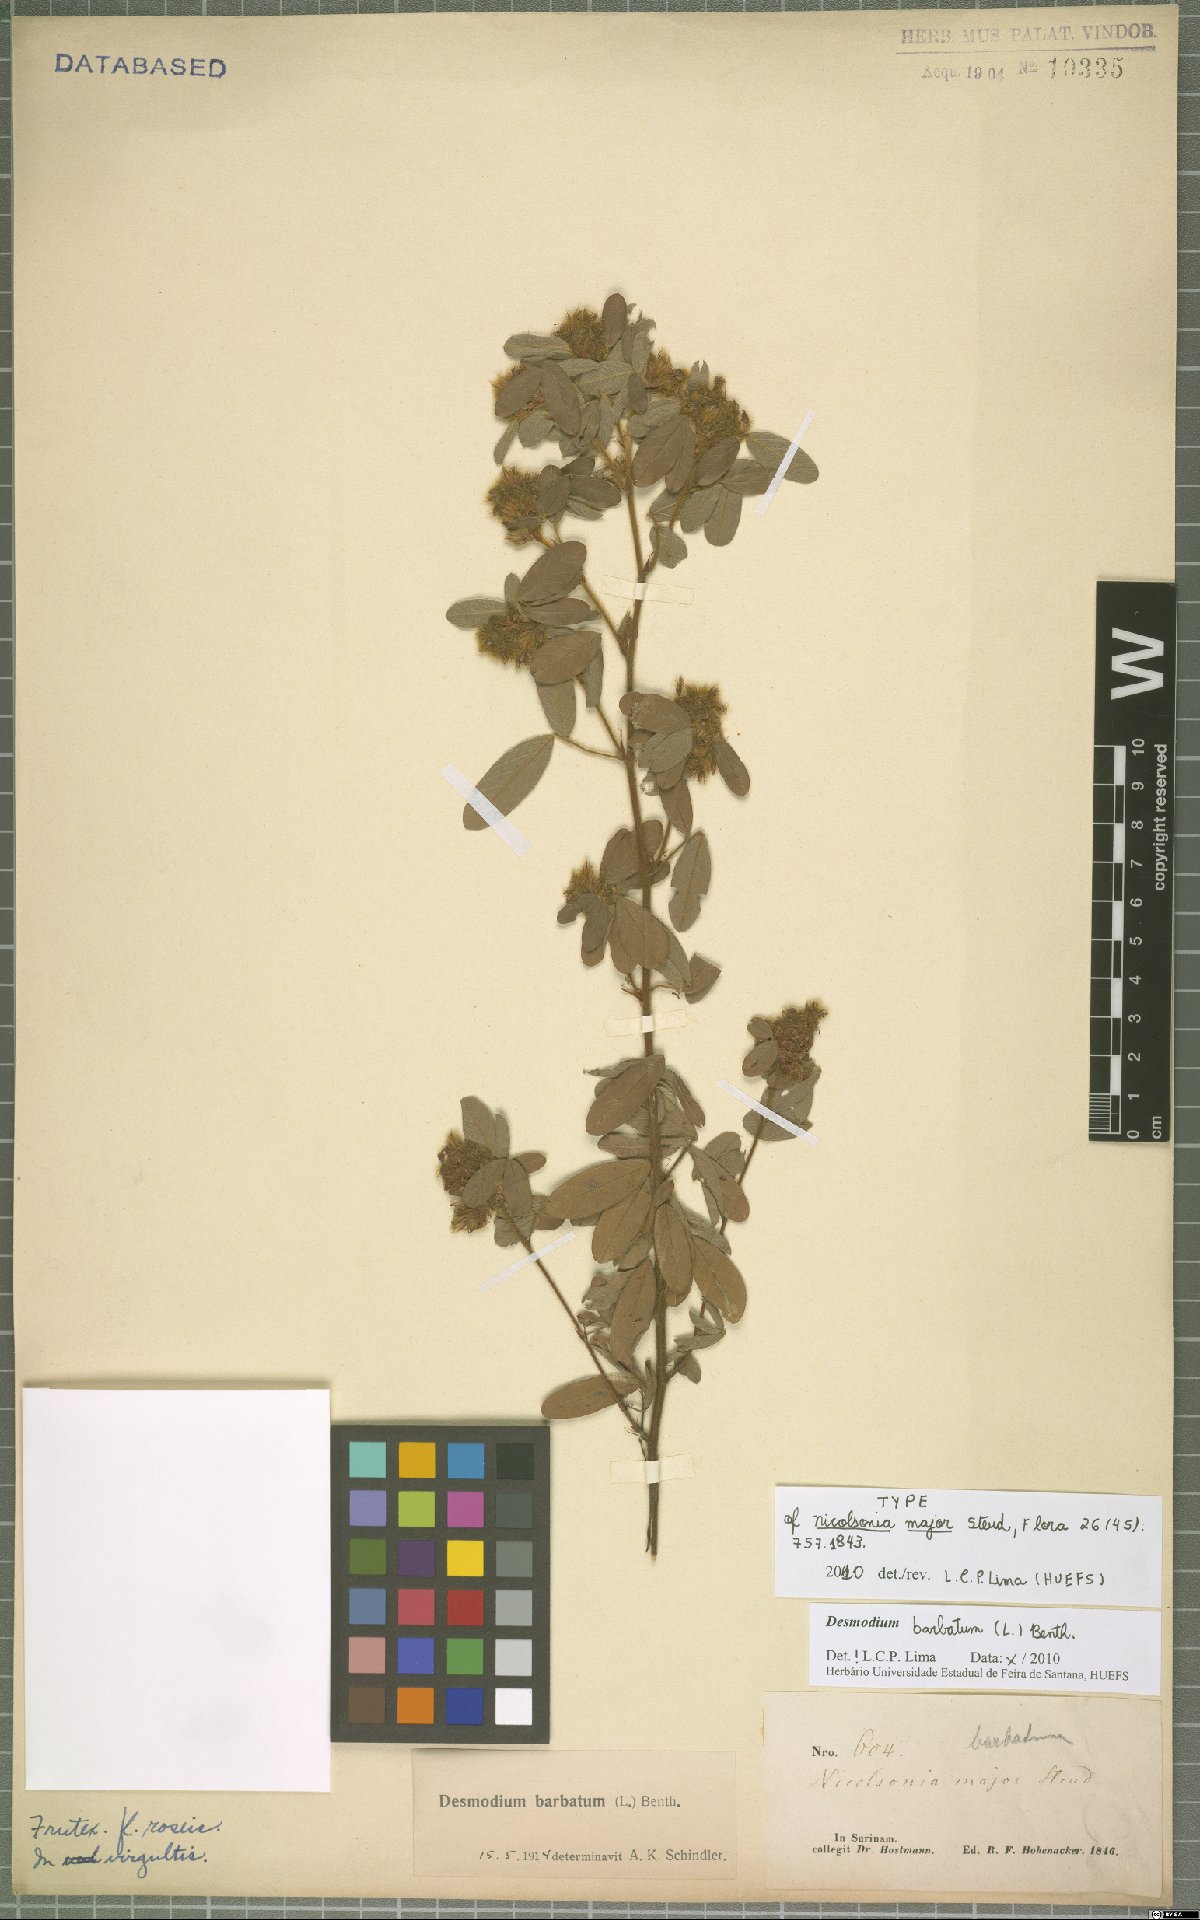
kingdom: Plantae
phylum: Tracheophyta
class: Magnoliopsida
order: Fabales
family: Fabaceae
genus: Grona
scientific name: Grona barbata
